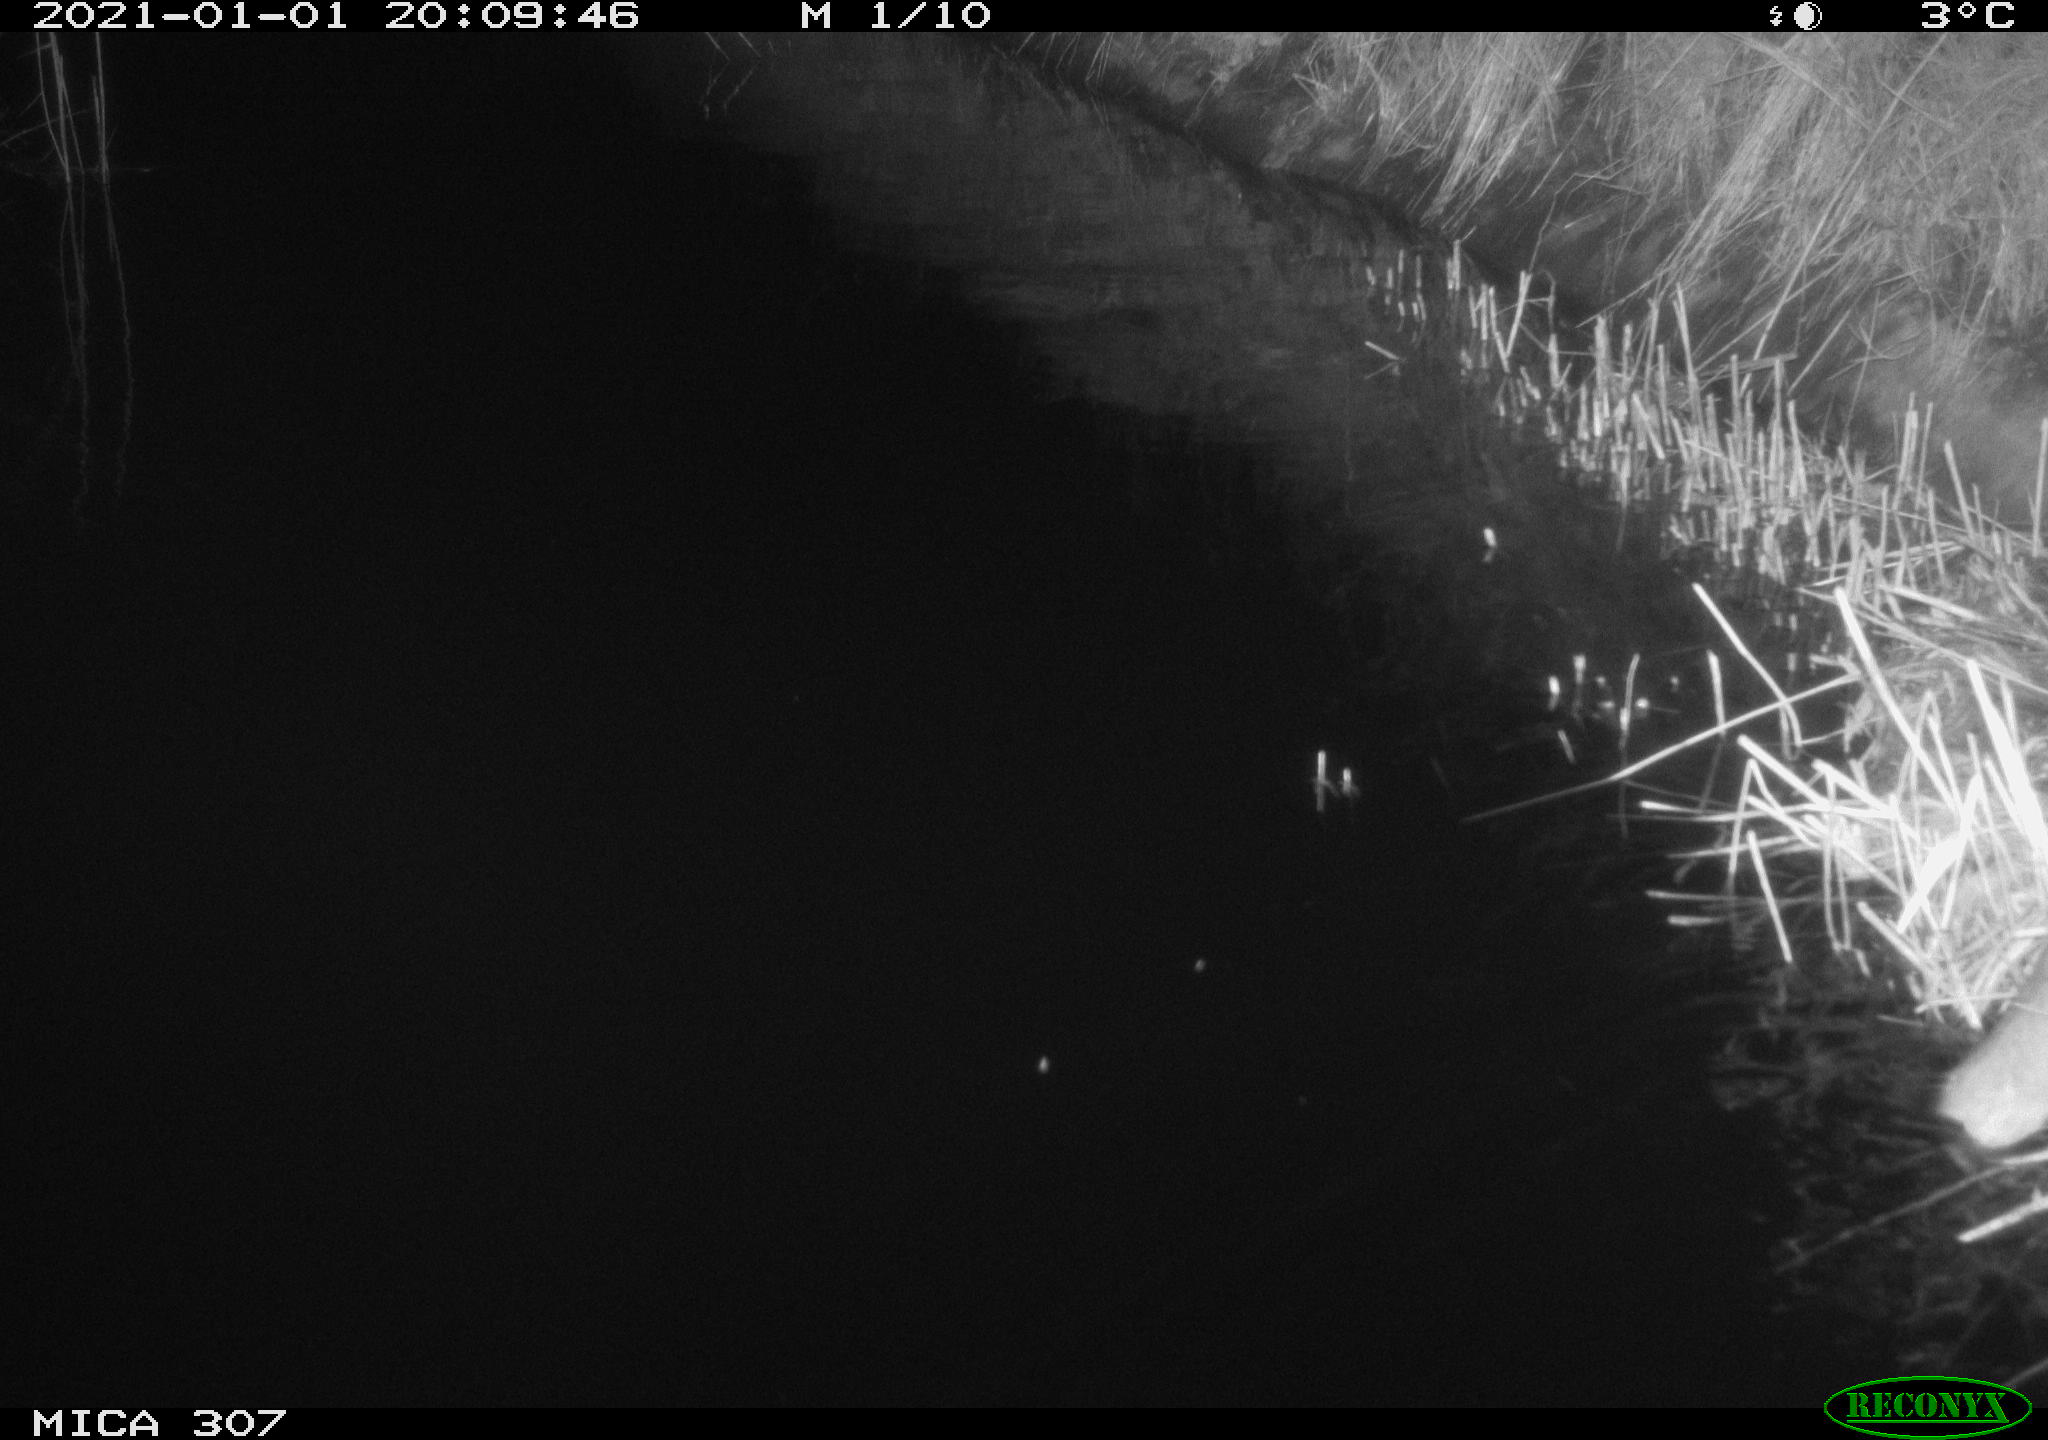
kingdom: Animalia
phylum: Chordata
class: Mammalia
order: Rodentia
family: Muridae
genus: Rattus
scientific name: Rattus norvegicus
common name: Brown rat
